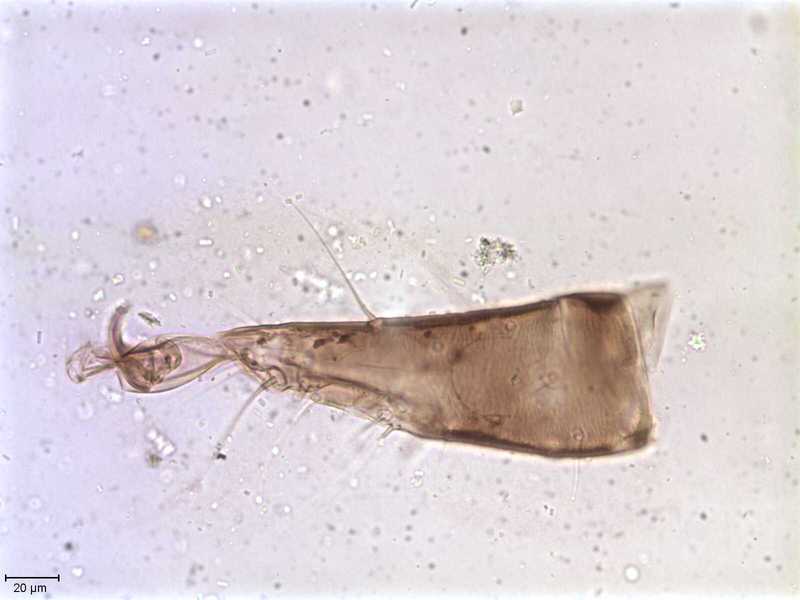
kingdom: Animalia
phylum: Arthropoda
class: Arachnida
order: Mesostigmata
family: Halarachnidae
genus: Orthohalarachne
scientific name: Orthohalarachne letalis
